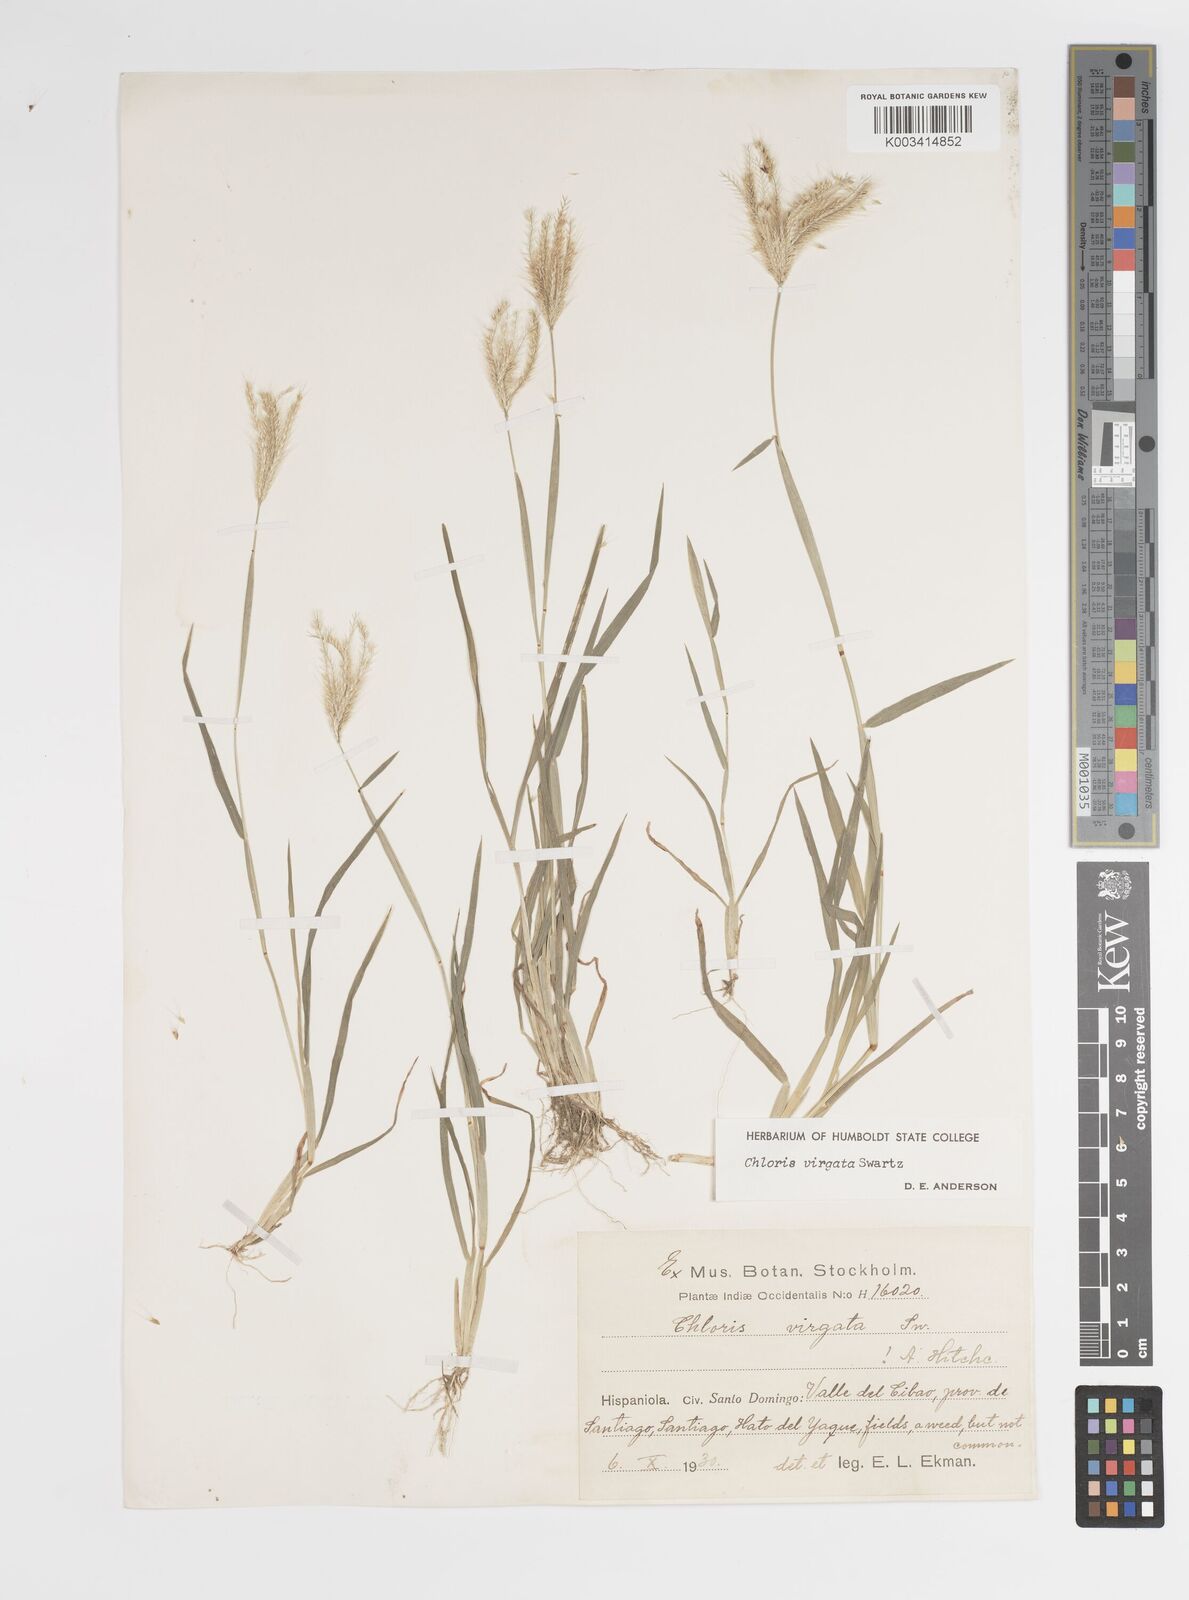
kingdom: Plantae
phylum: Tracheophyta
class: Liliopsida
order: Poales
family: Poaceae
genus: Chloris
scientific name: Chloris virgata
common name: Feathery rhodes-grass
